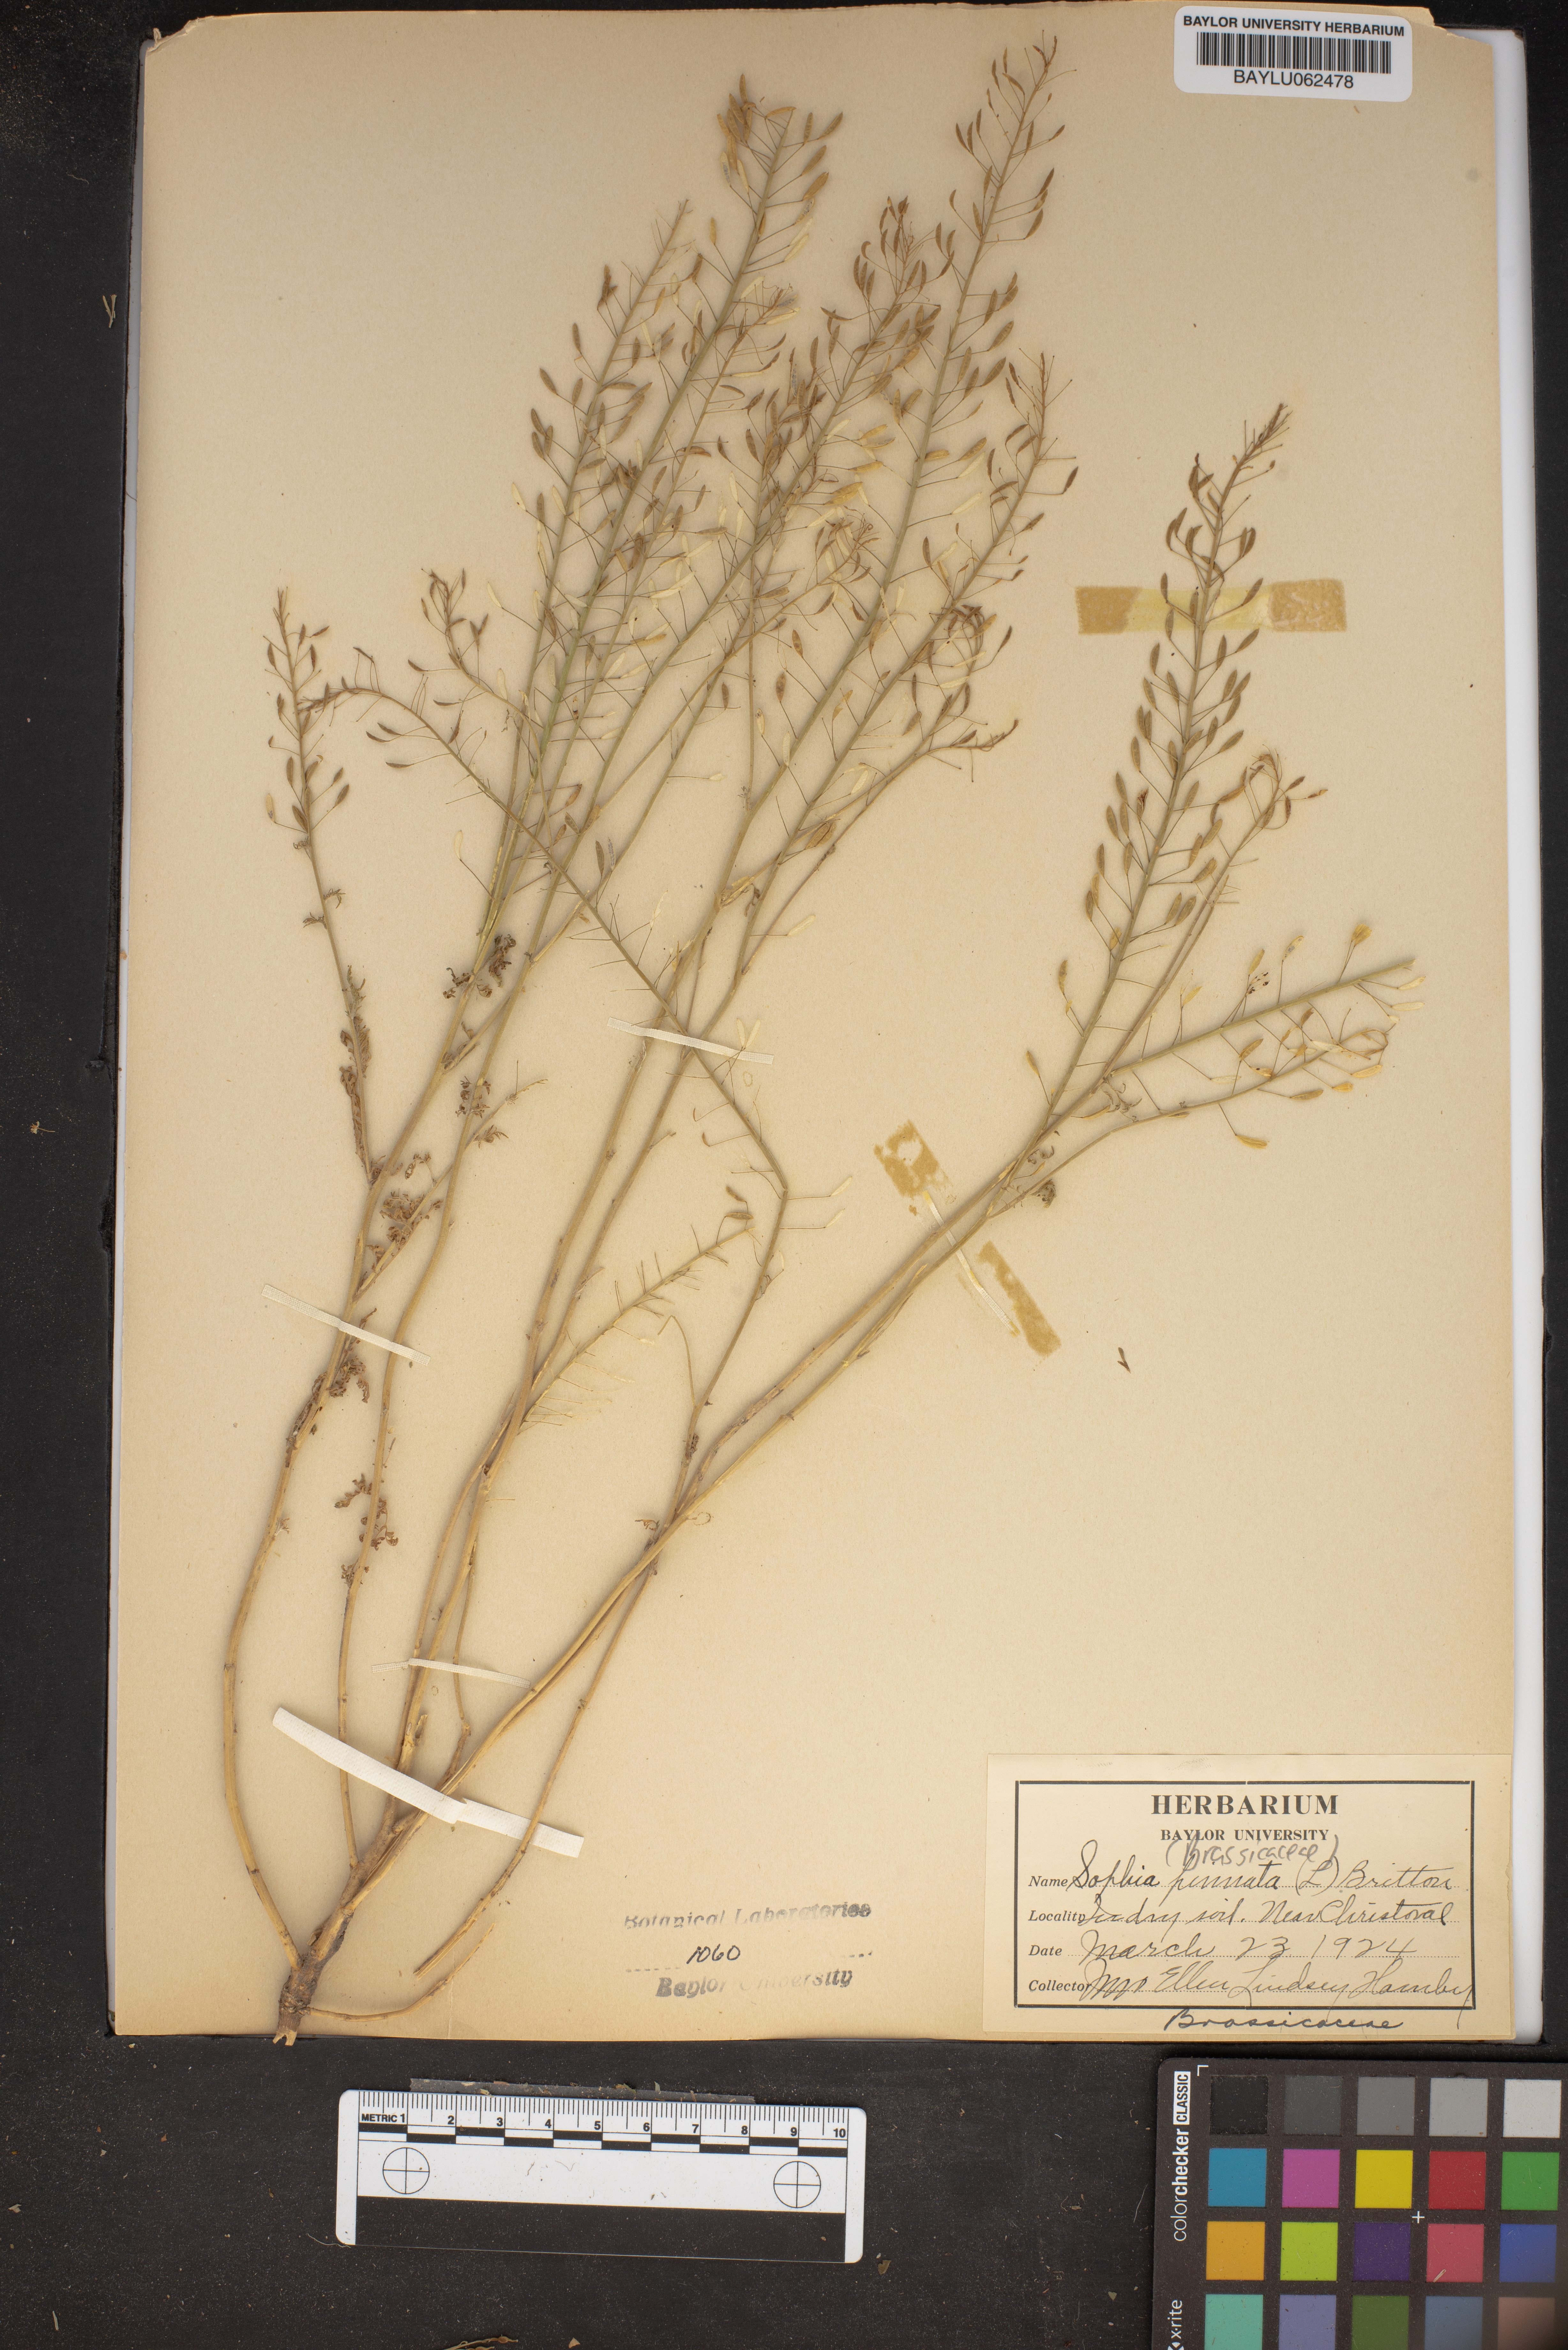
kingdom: Plantae
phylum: Tracheophyta
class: Magnoliopsida
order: Brassicales
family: Brassicaceae
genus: Descurainia
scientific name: Descurainia pinnata
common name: Western tansy mustard
